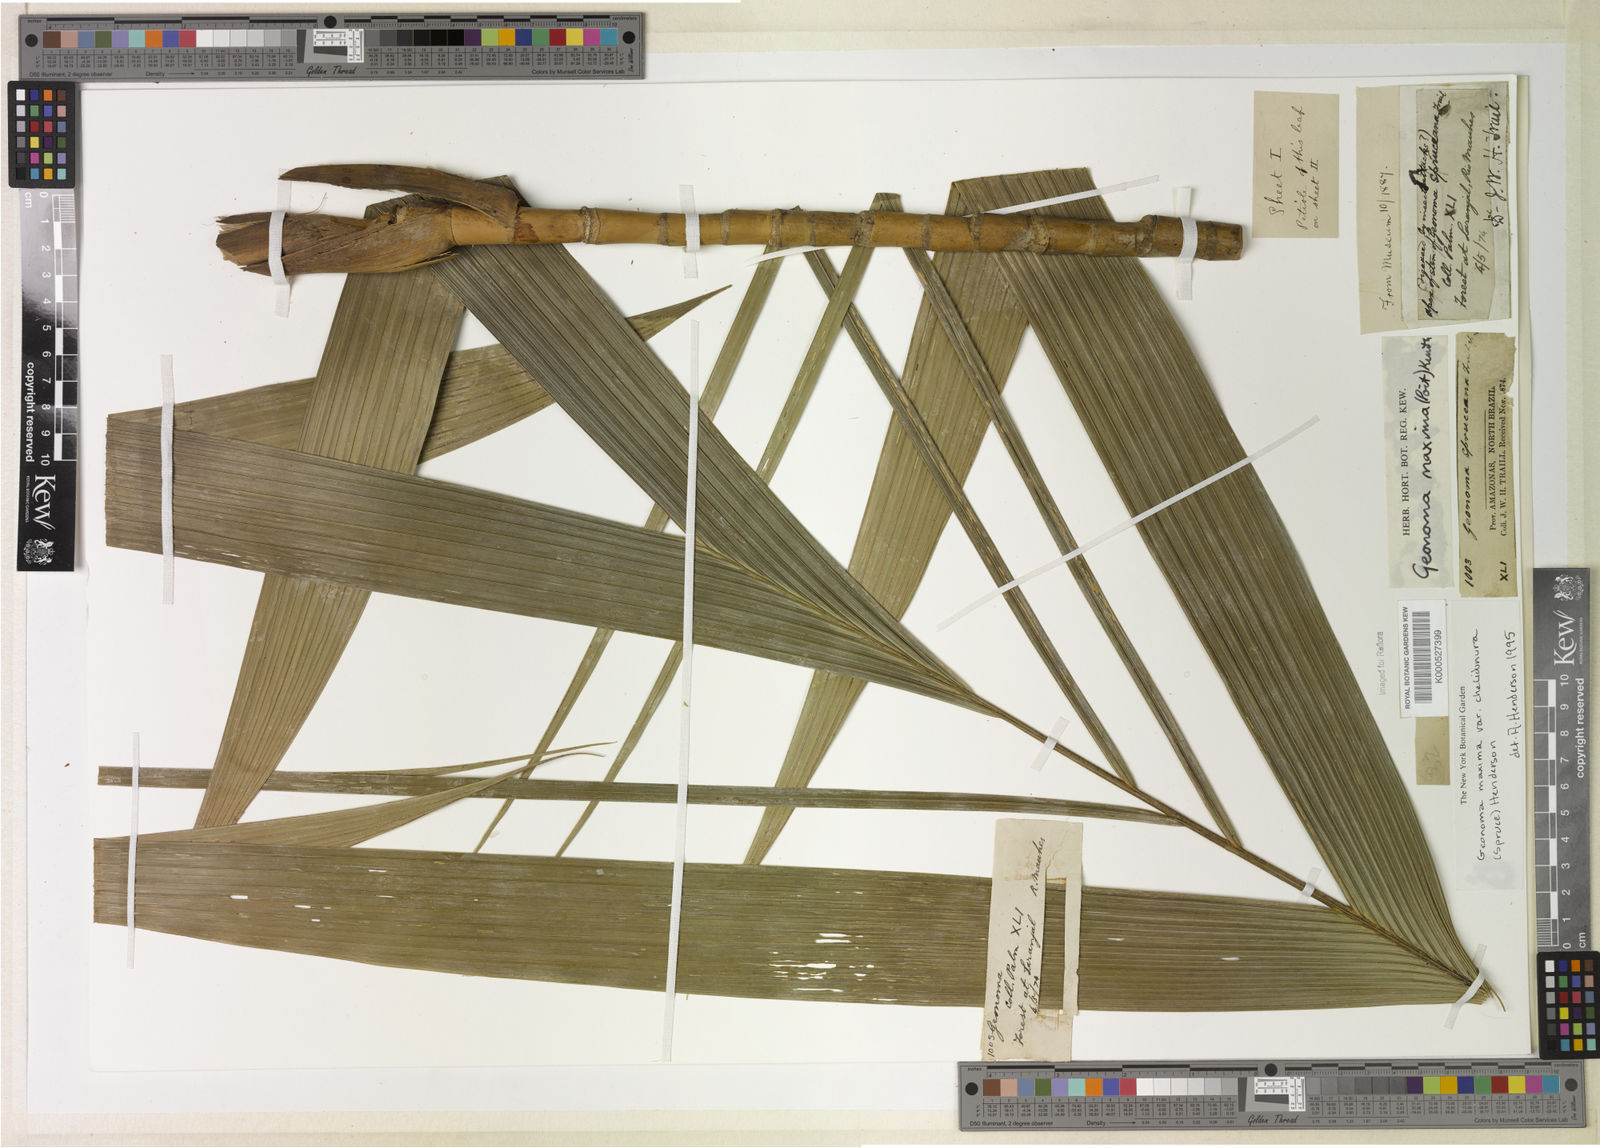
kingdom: Plantae
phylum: Tracheophyta
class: Liliopsida
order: Arecales
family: Arecaceae
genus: Geonoma
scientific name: Geonoma maxima
